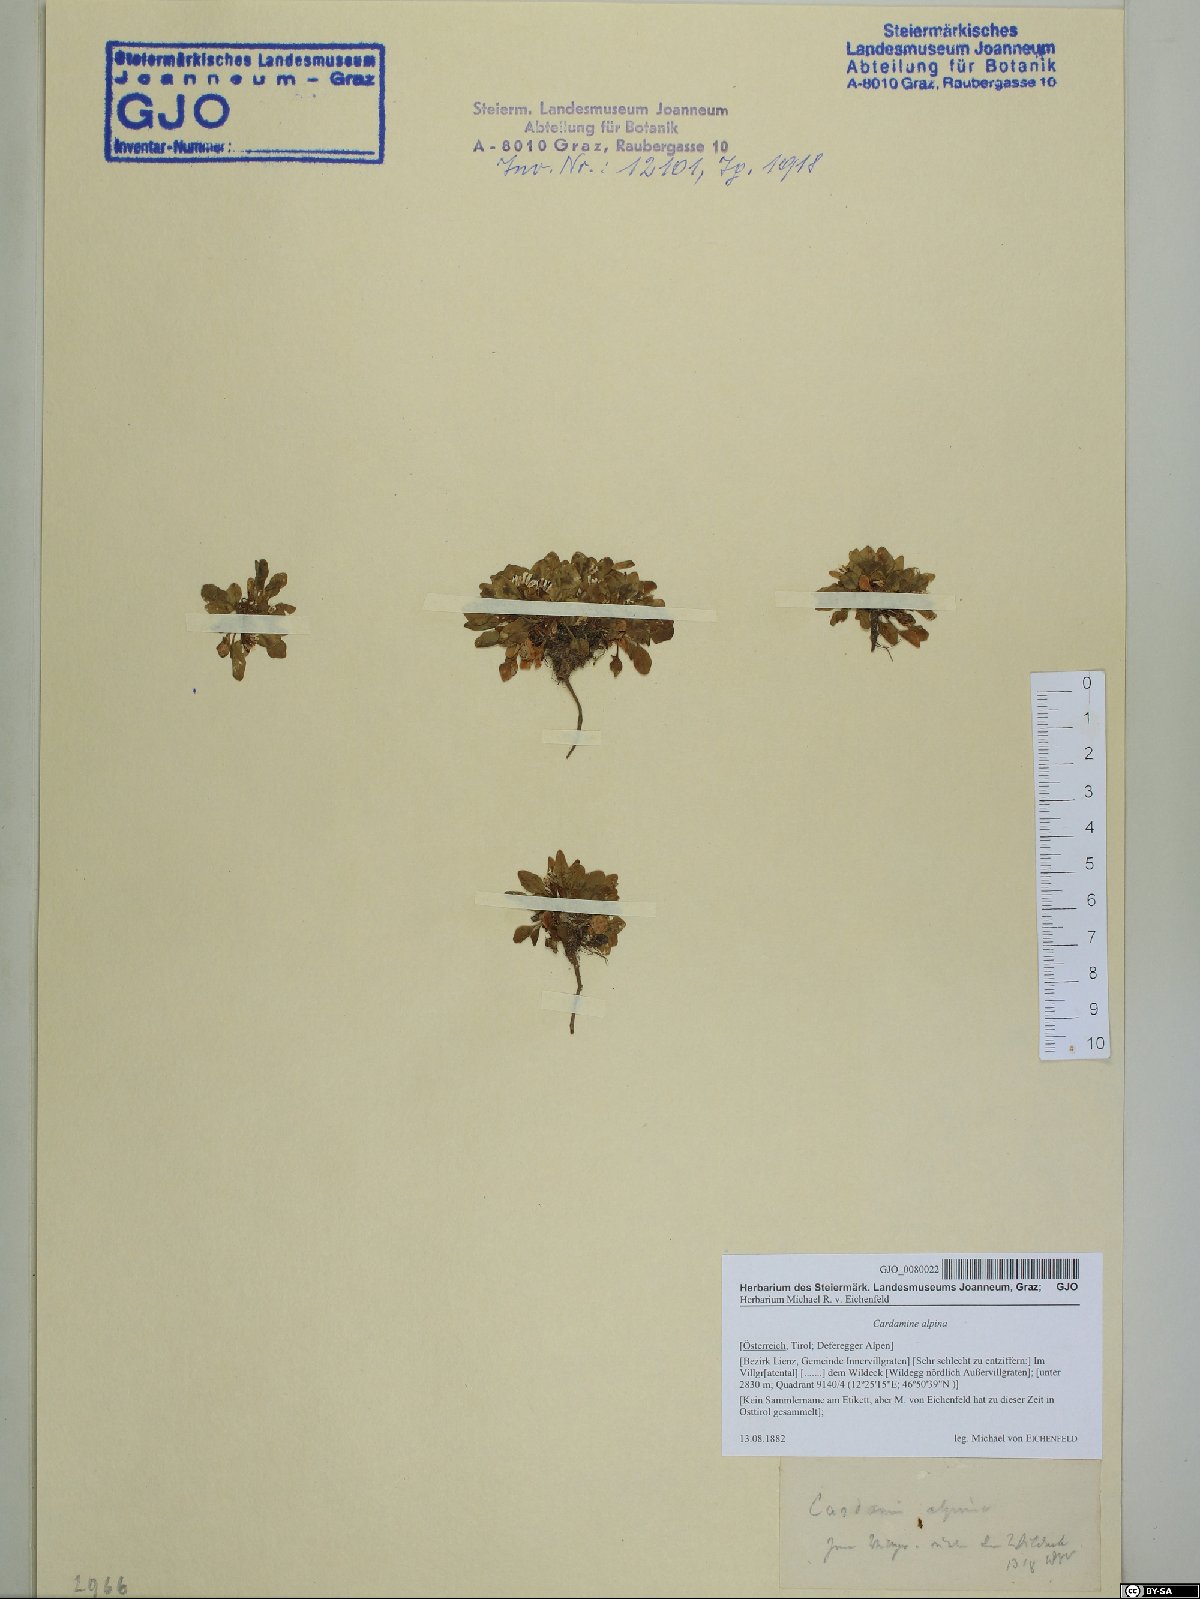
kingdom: Plantae
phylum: Tracheophyta
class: Magnoliopsida
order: Brassicales
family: Brassicaceae
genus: Cardamine
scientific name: Cardamine bellidifolia
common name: Alpine bittercress
